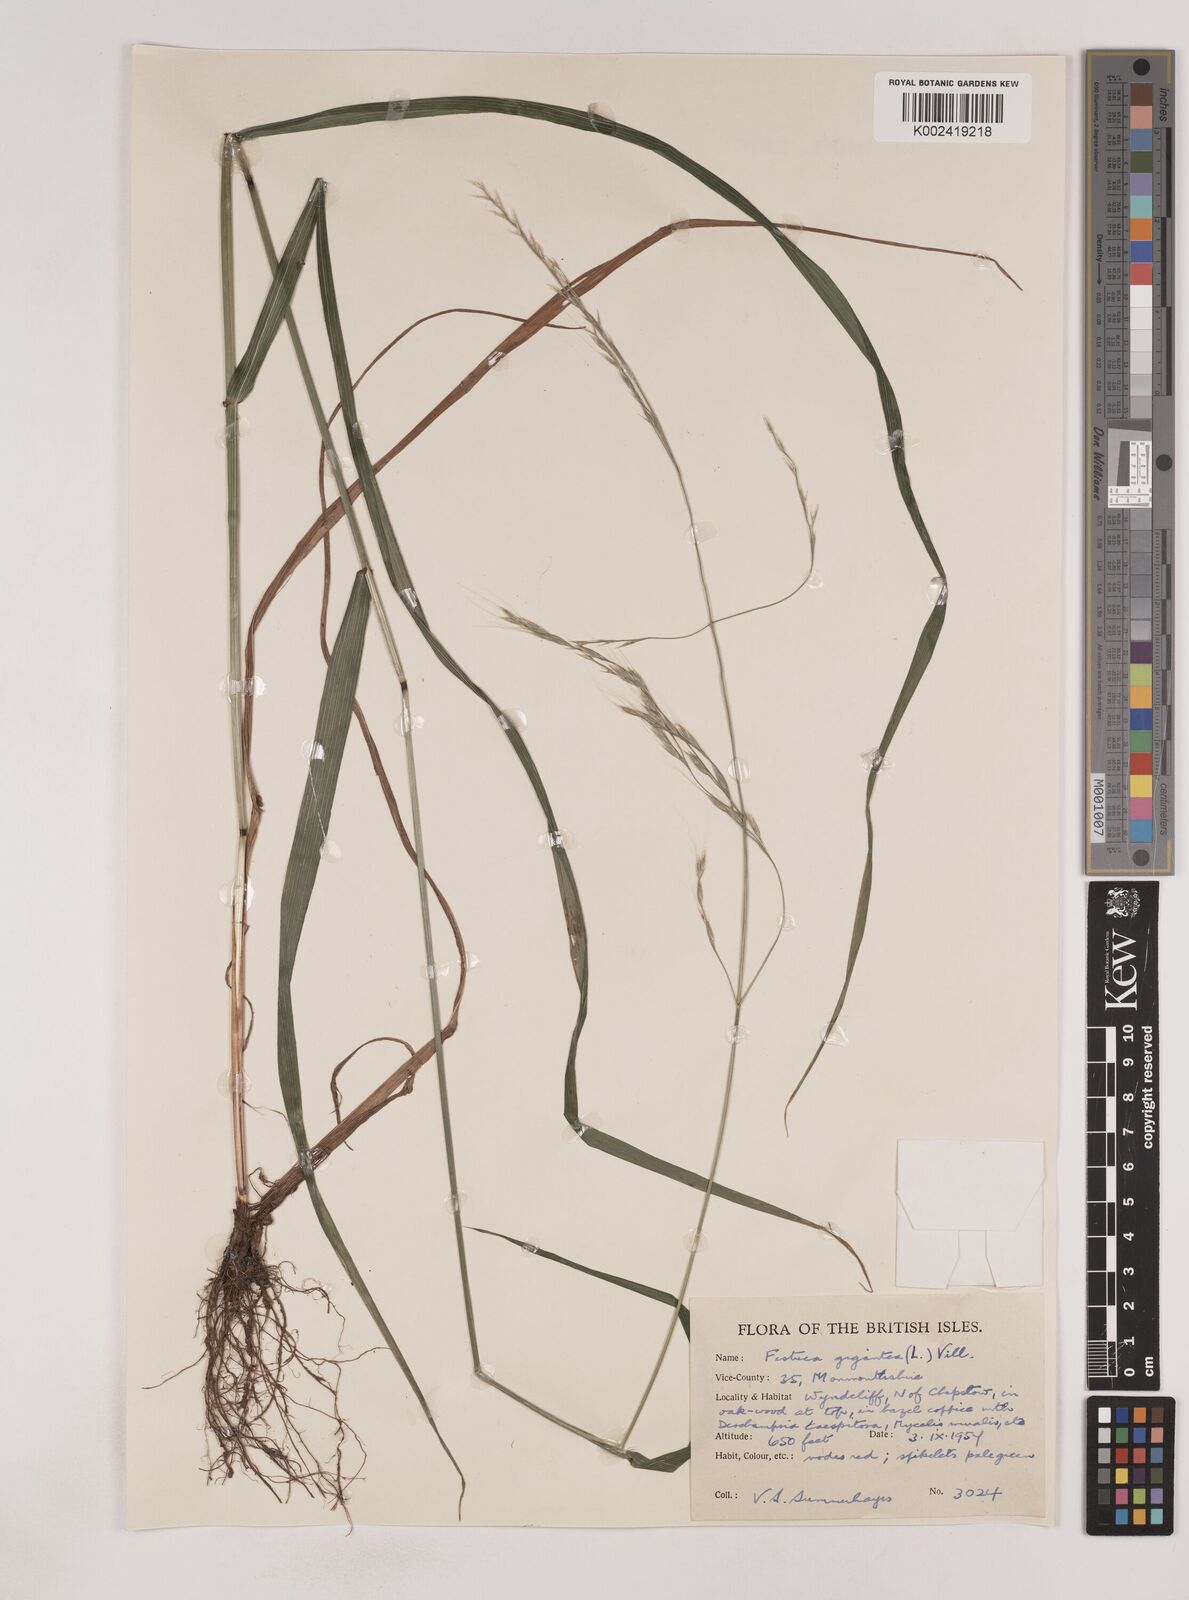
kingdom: Plantae
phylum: Tracheophyta
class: Liliopsida
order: Poales
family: Poaceae
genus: Lolium
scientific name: Lolium giganteum
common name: Giant fescue
